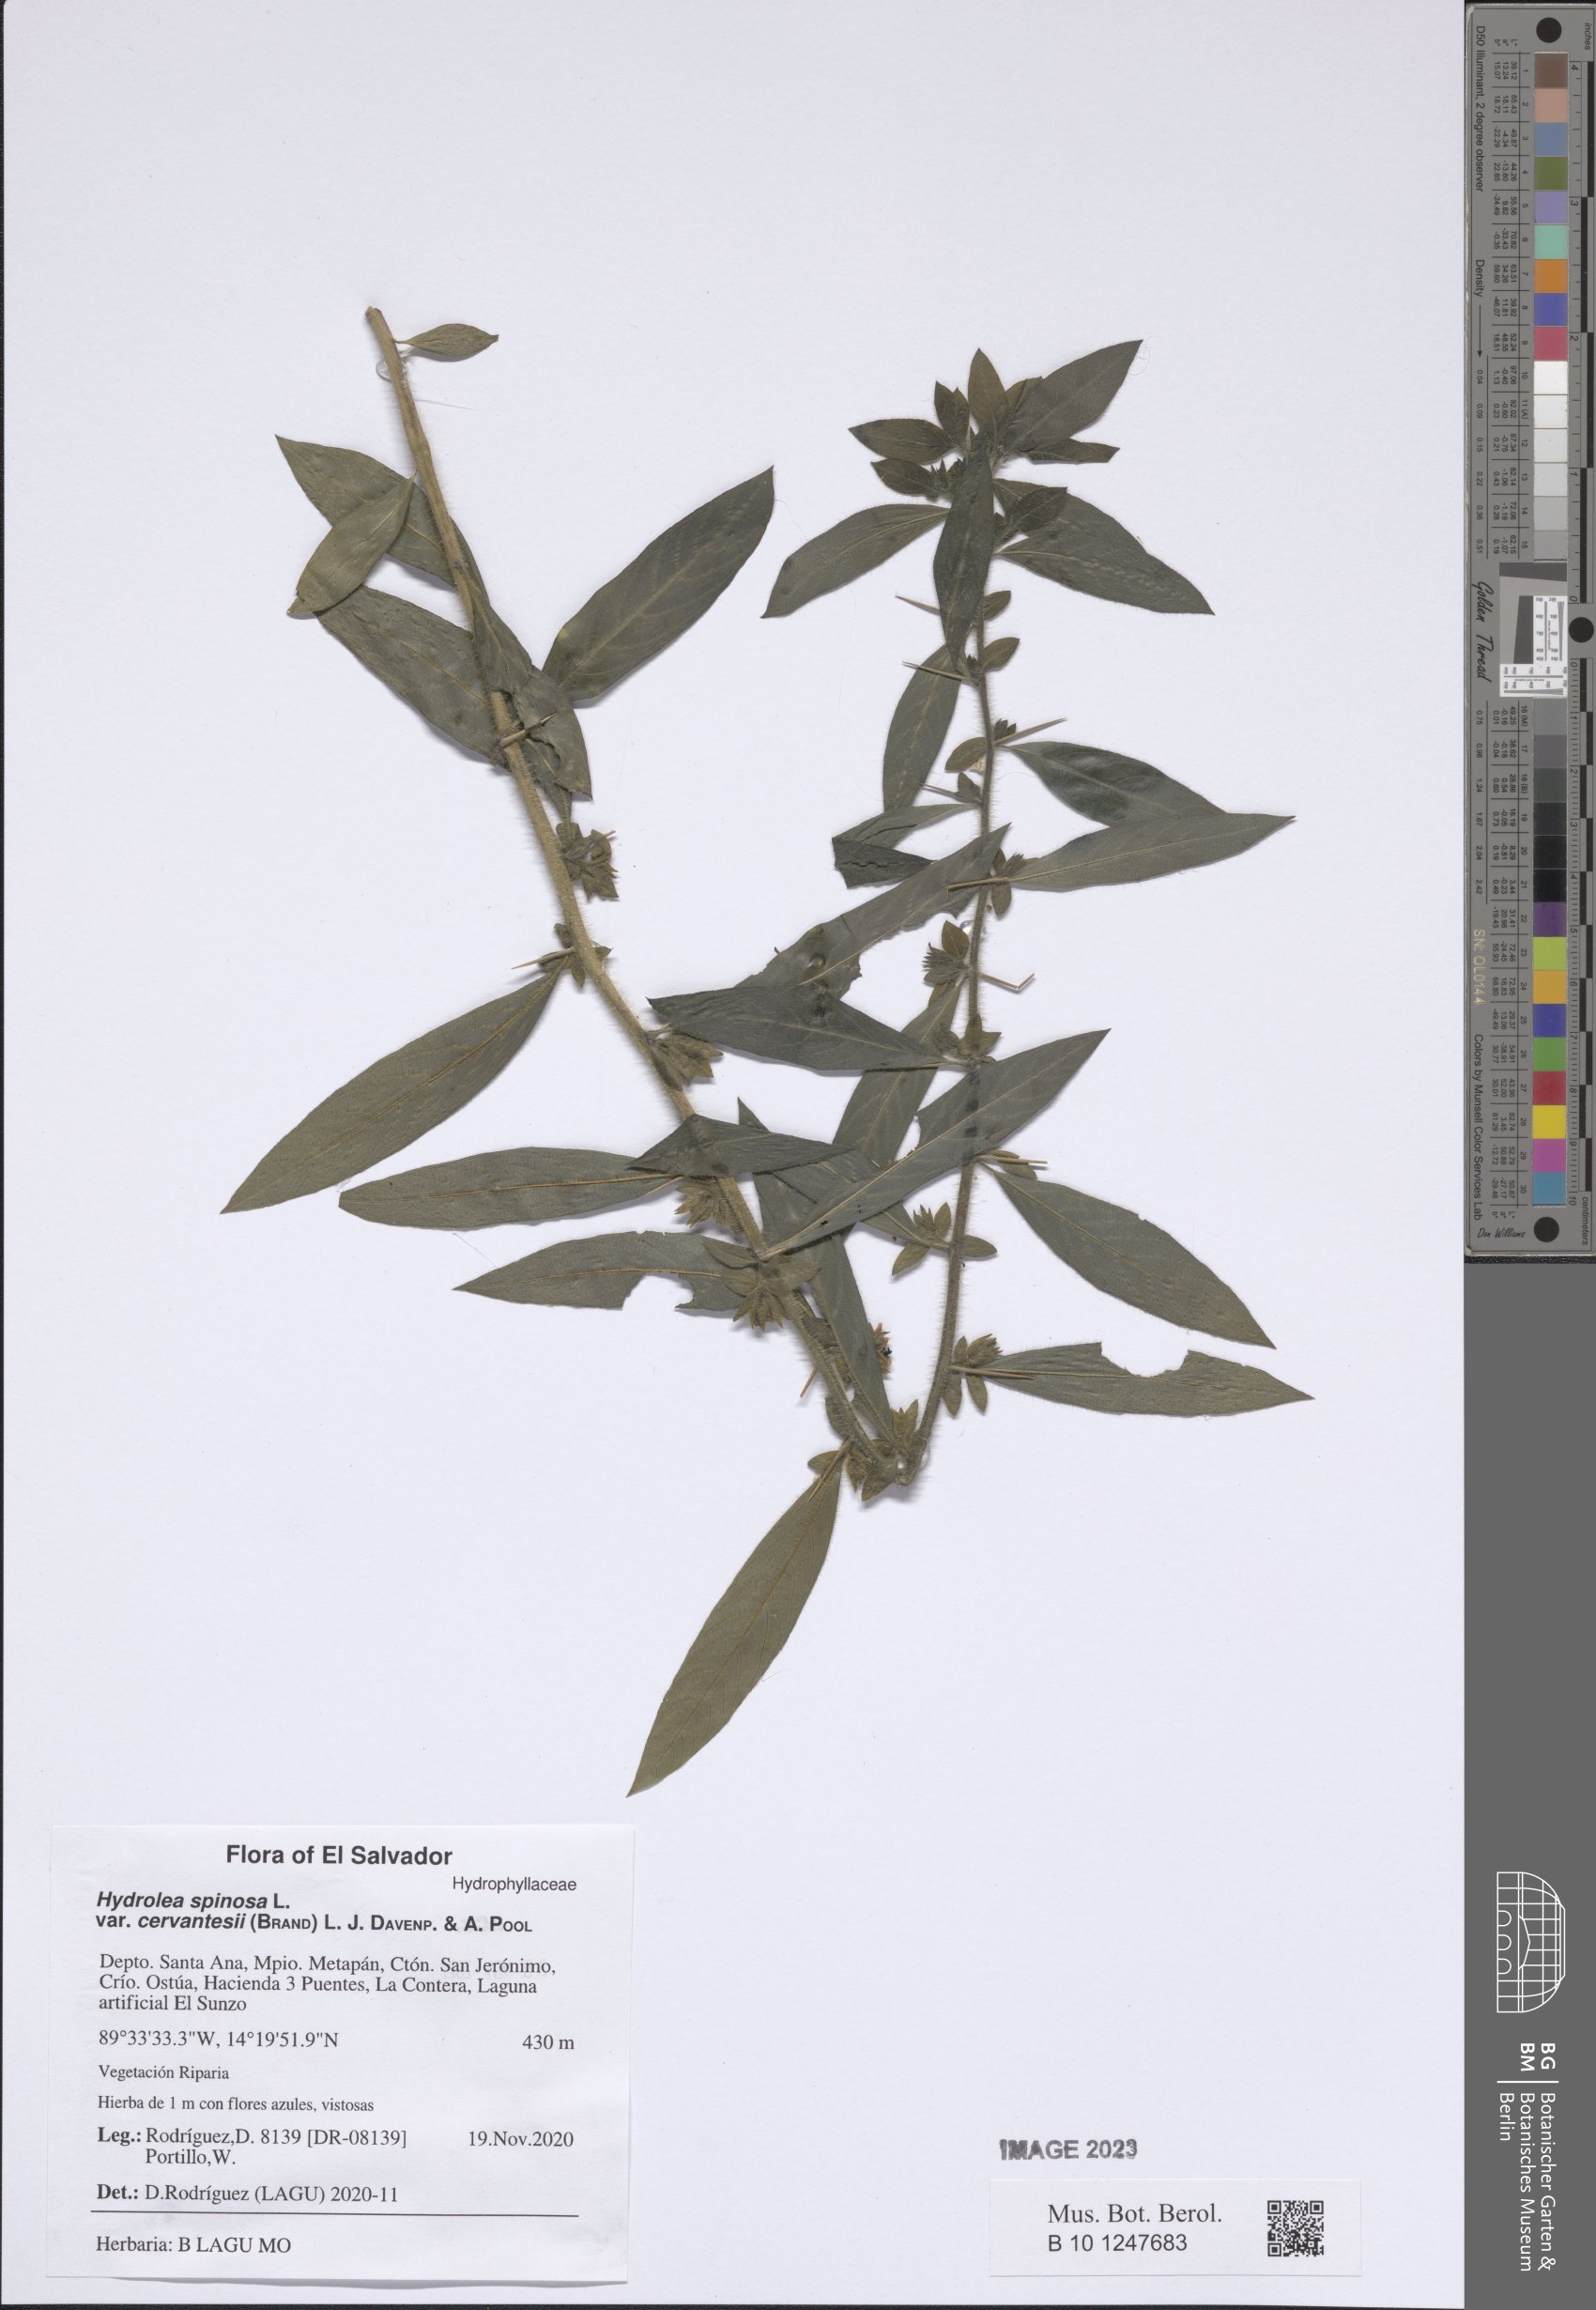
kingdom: Plantae
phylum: Tracheophyta
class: Magnoliopsida
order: Solanales
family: Hydroleaceae
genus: Hydrolea
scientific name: Hydrolea spinosa
